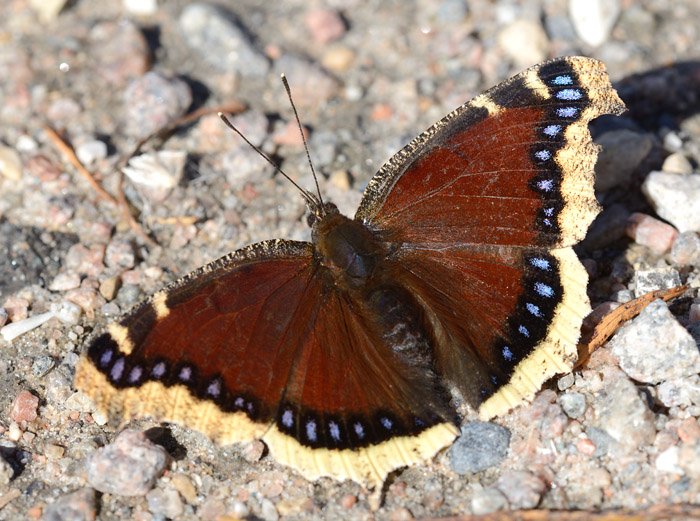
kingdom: Animalia
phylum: Arthropoda
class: Insecta
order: Lepidoptera
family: Nymphalidae
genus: Nymphalis
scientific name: Nymphalis antiopa
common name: Mourning Cloak
